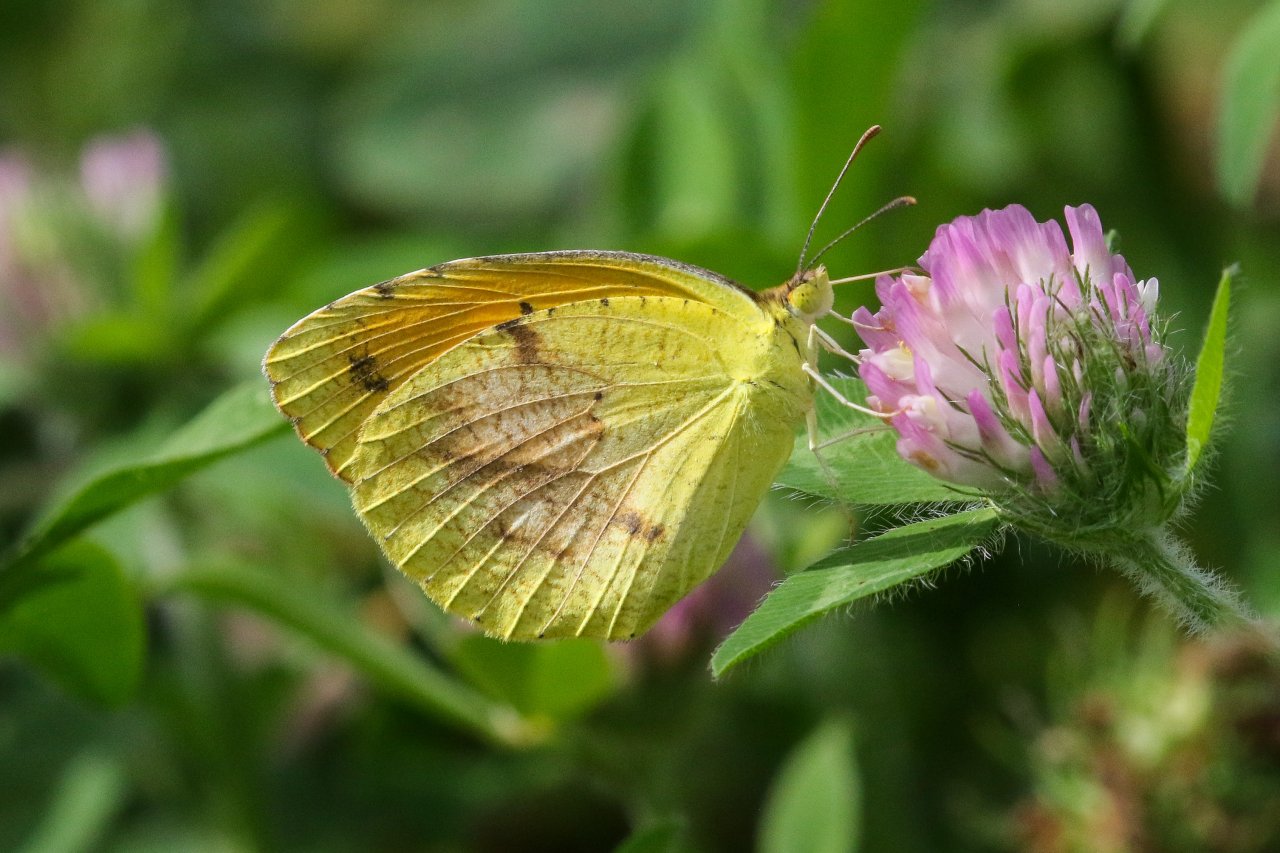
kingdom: Animalia
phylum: Arthropoda
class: Insecta
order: Lepidoptera
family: Pieridae
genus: Abaeis
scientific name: Abaeis nicippe
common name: Sleepy Orange
